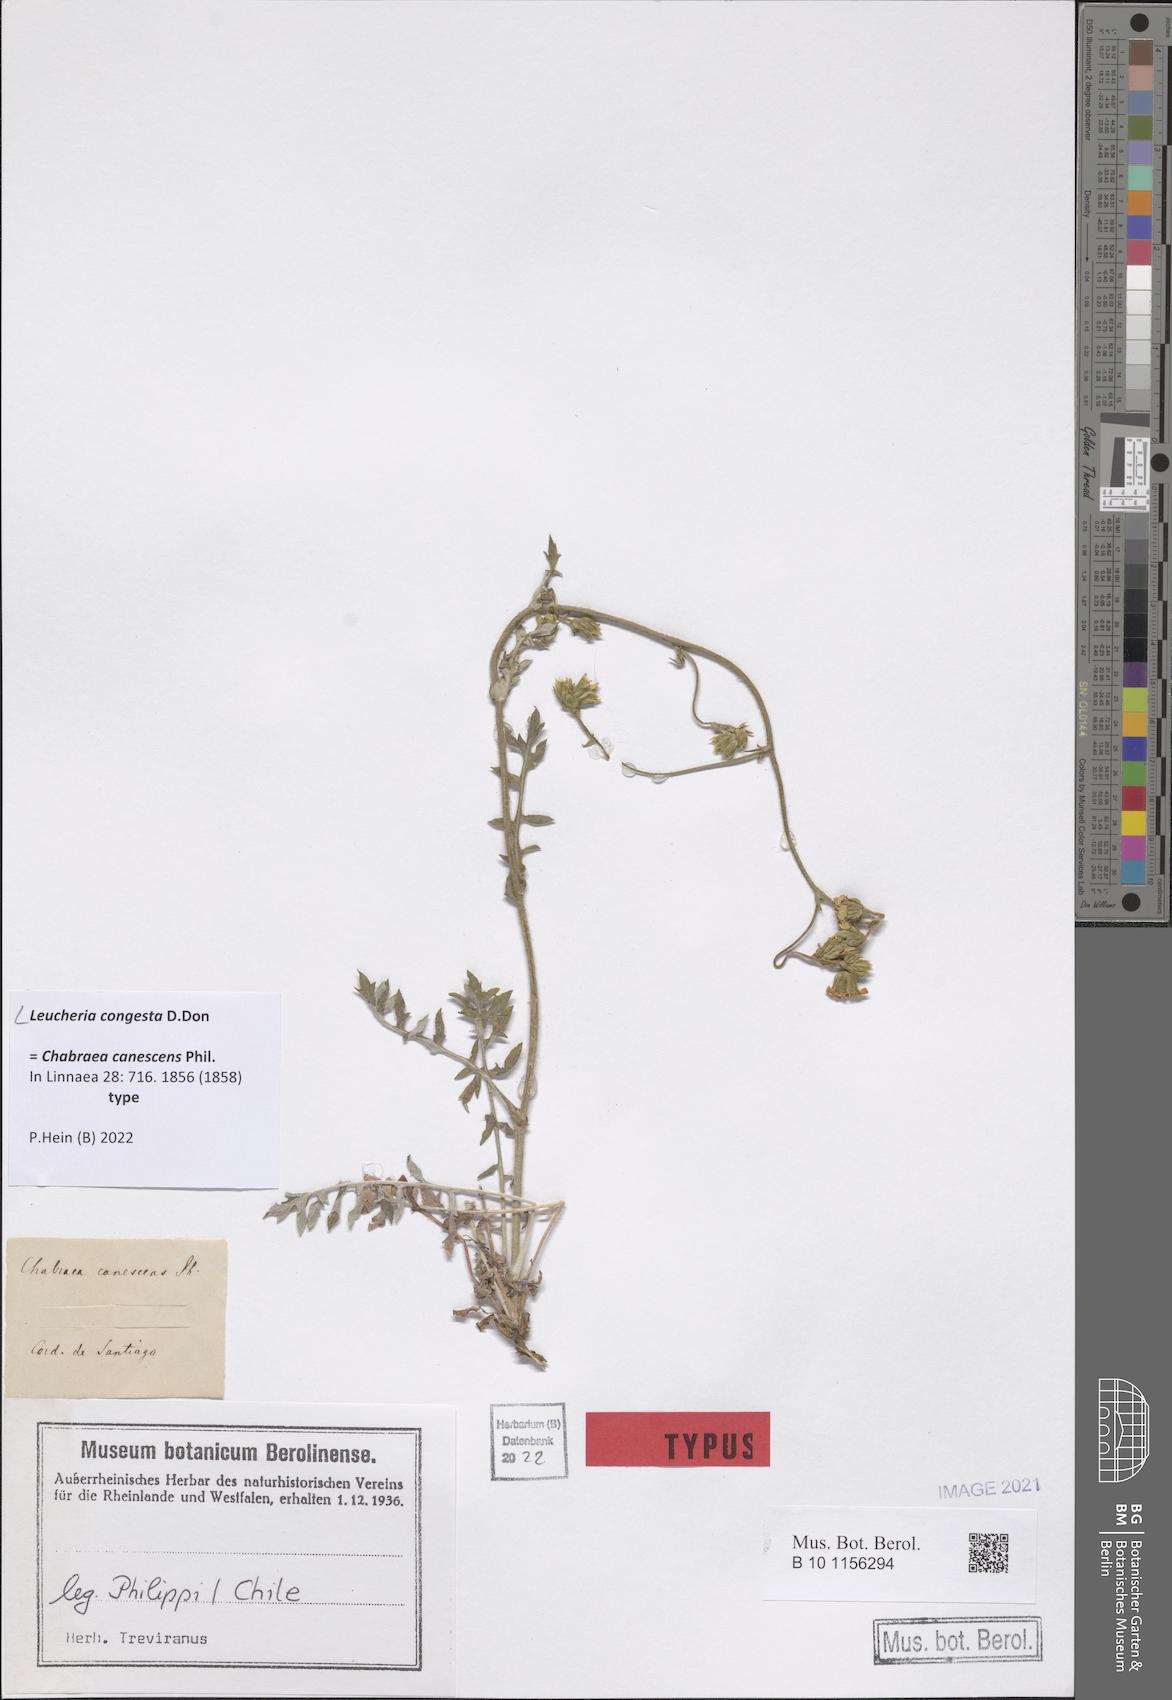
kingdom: Plantae
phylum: Tracheophyta
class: Magnoliopsida
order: Asterales
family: Asteraceae
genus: Leucheria
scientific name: Leucheria congesta
